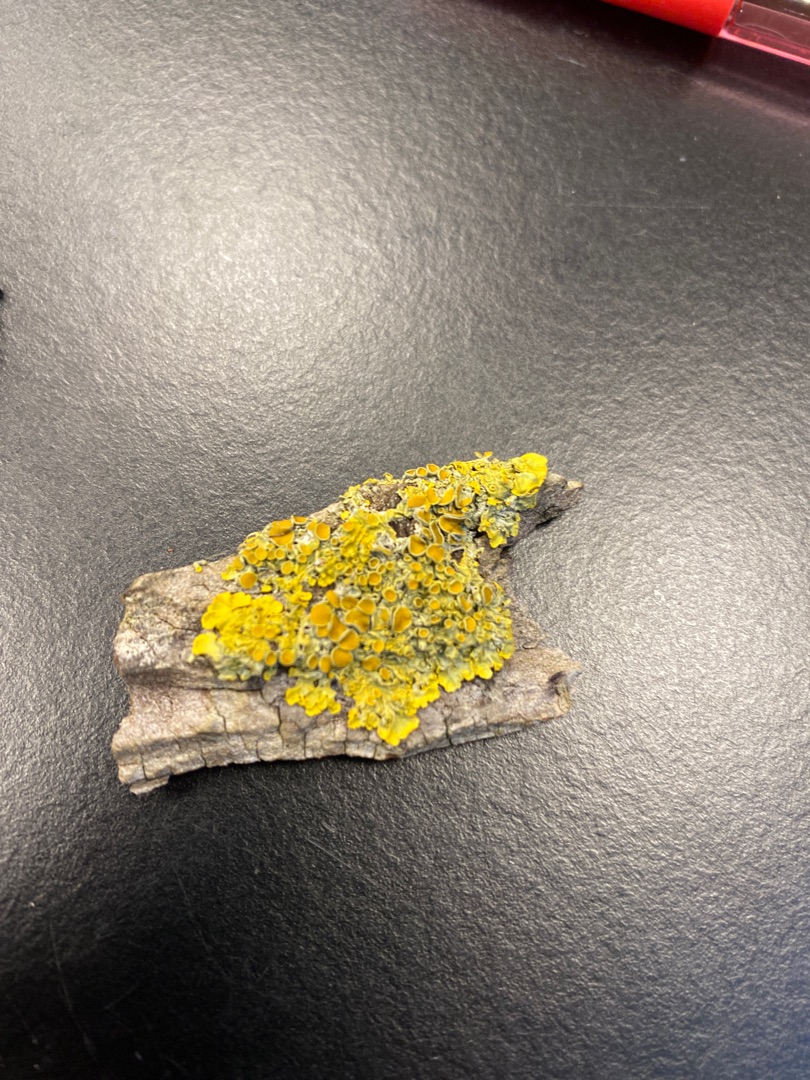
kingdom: Fungi
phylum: Ascomycota
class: Lecanoromycetes
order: Teloschistales
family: Teloschistaceae
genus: Xanthoria
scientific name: Xanthoria parietina
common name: Almindelig væggelav
